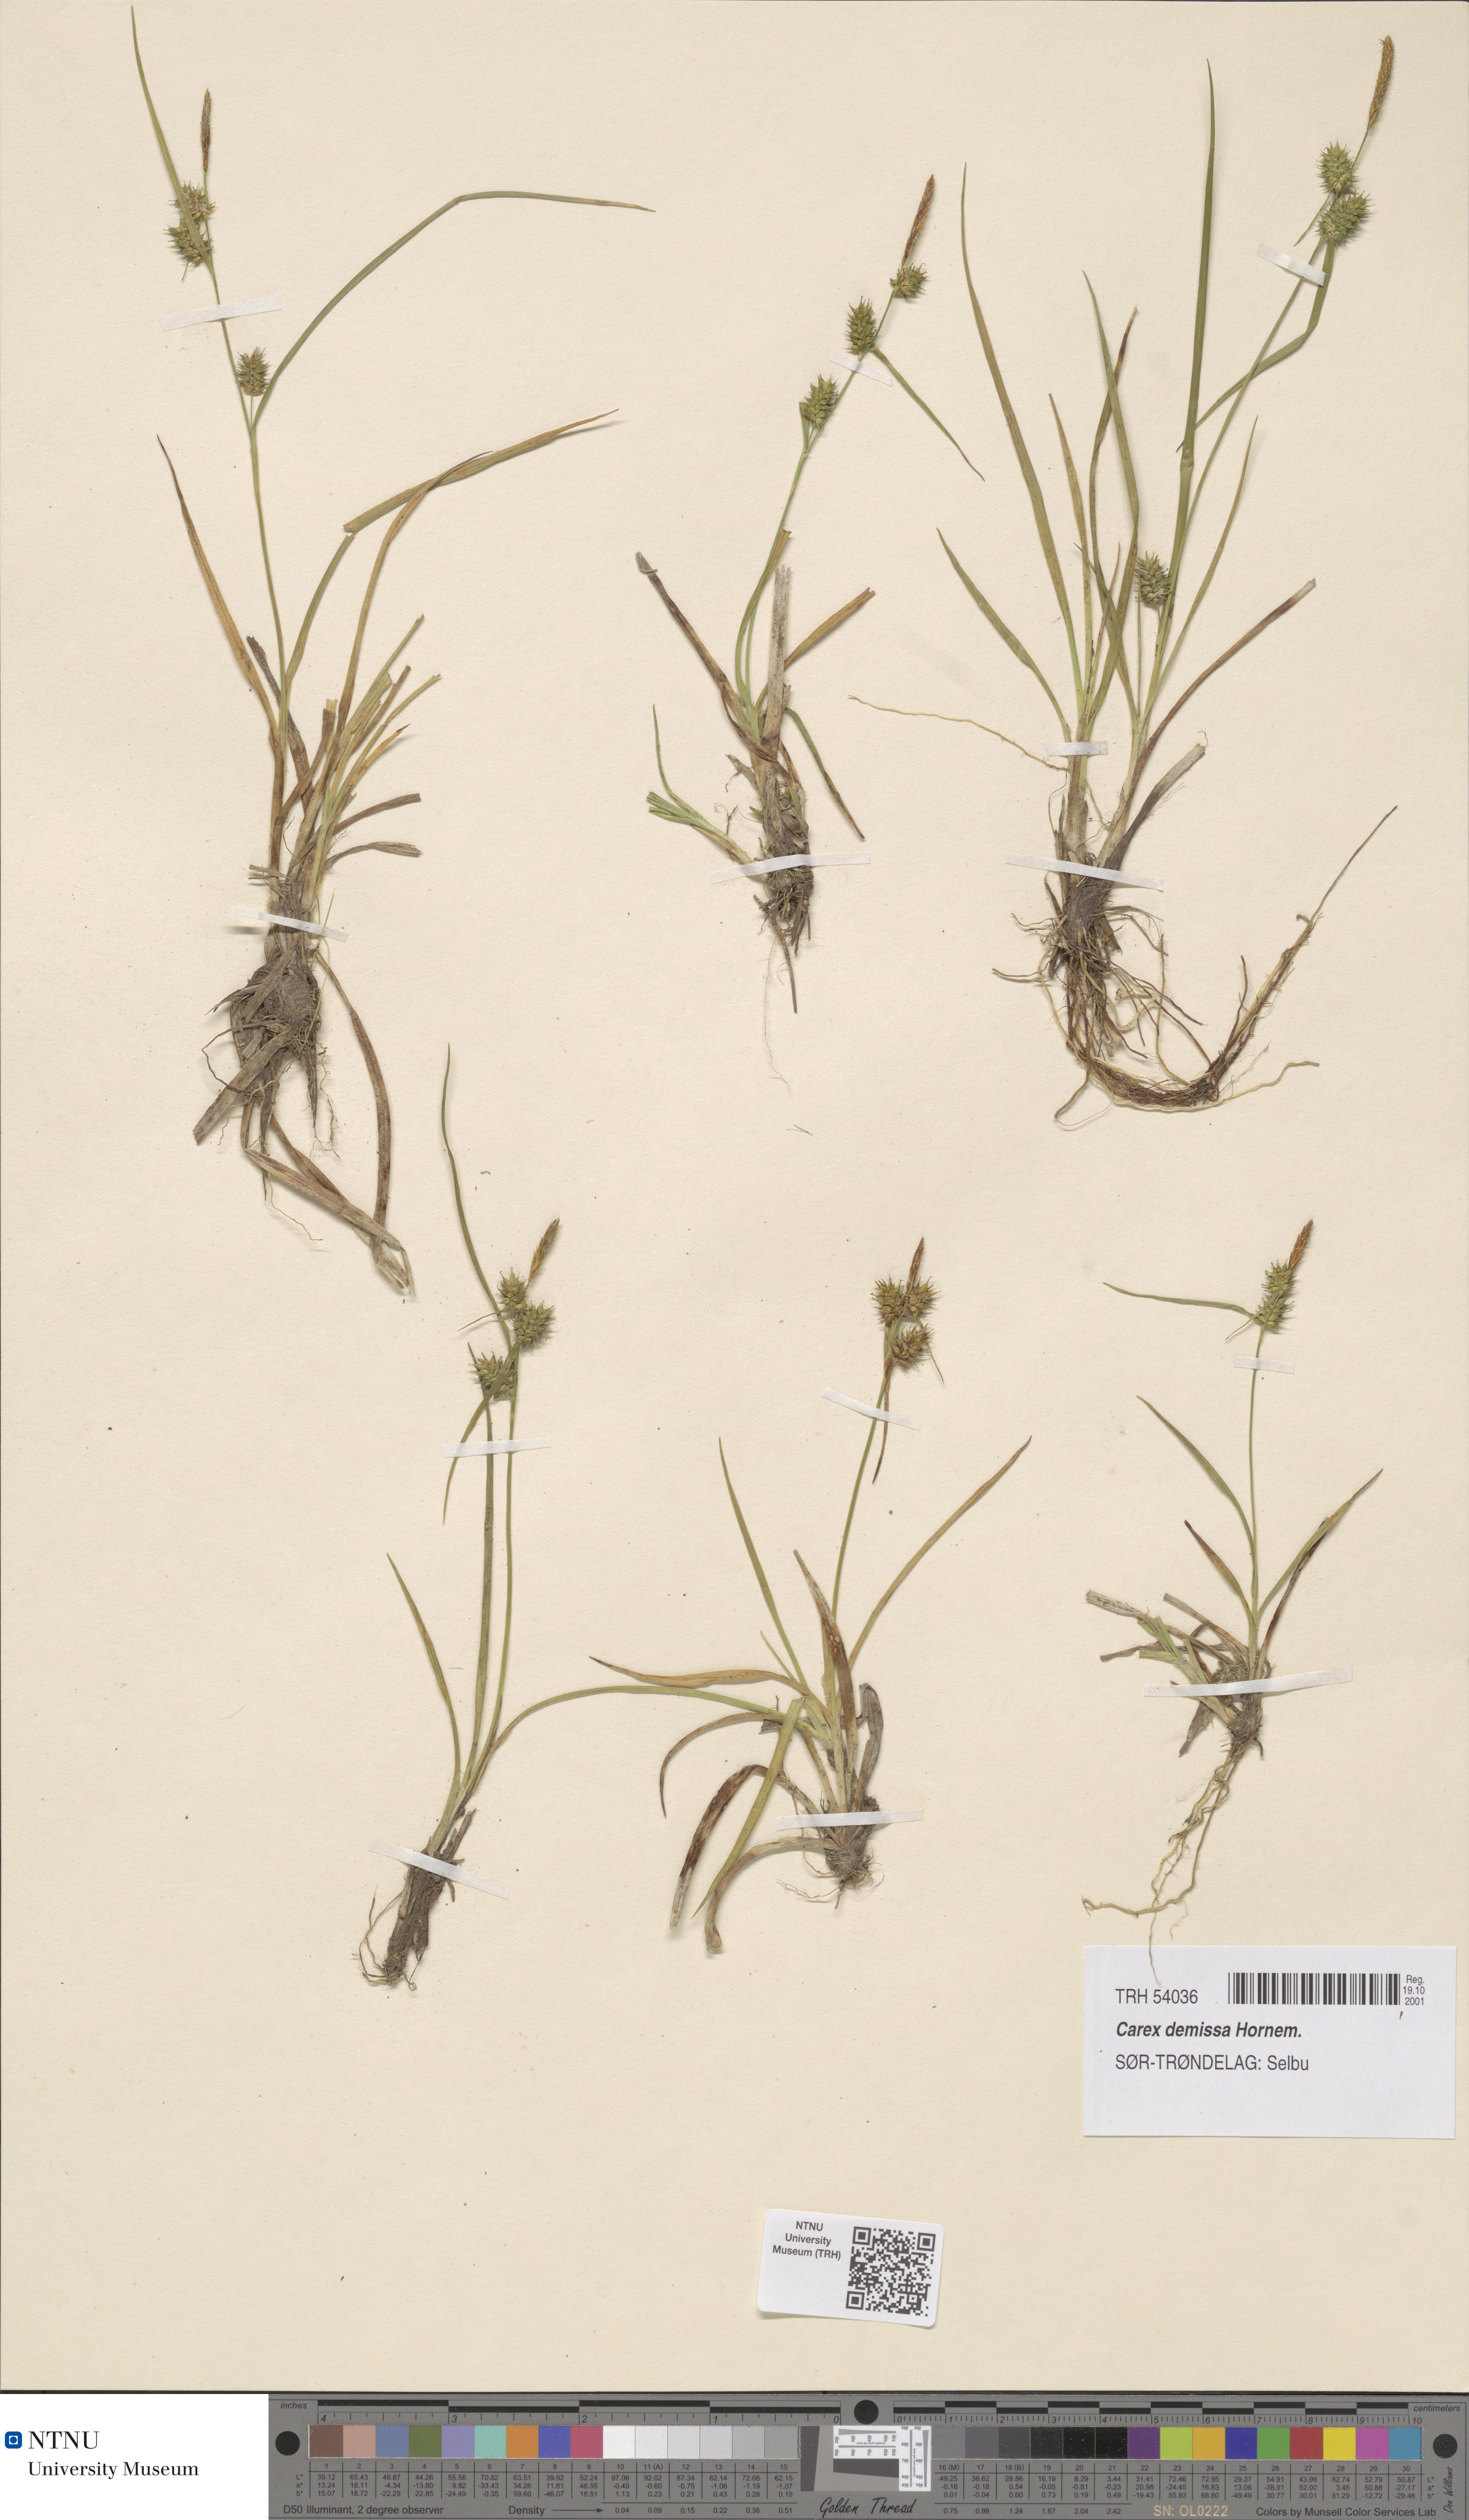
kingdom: Plantae
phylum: Tracheophyta
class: Liliopsida
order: Poales
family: Cyperaceae
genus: Carex
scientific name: Carex demissa
